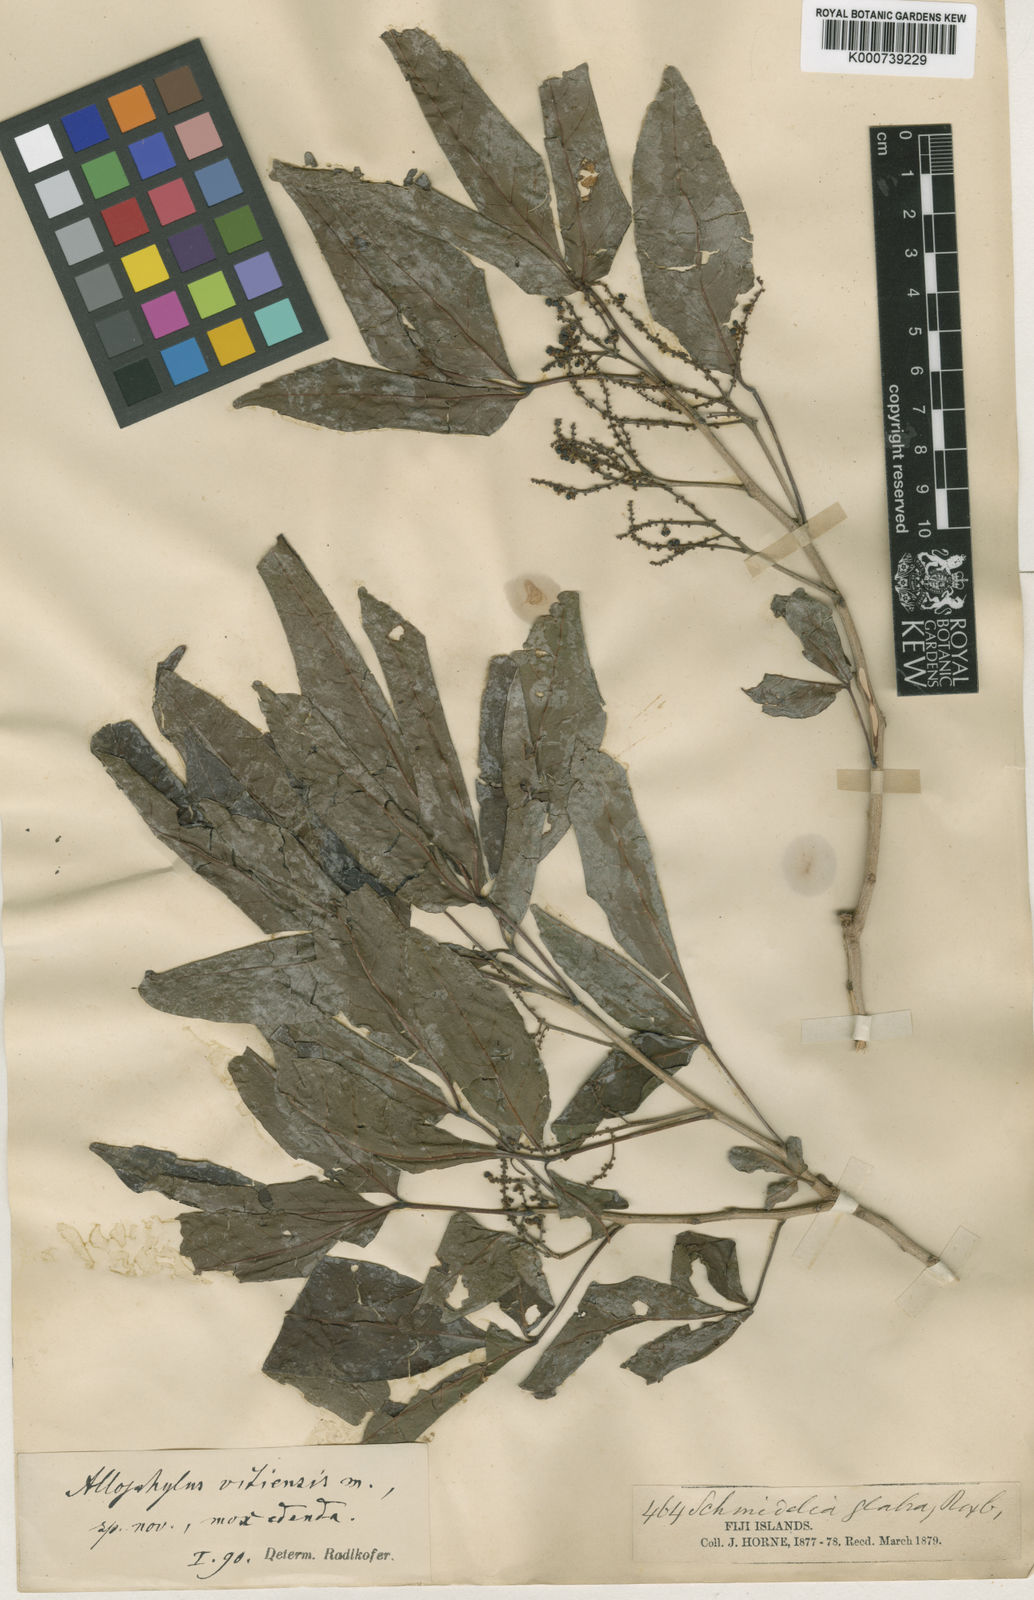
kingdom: Plantae
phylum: Tracheophyta
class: Magnoliopsida
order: Sapindales
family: Sapindaceae
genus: Allophylus
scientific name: Allophylus timorensis
